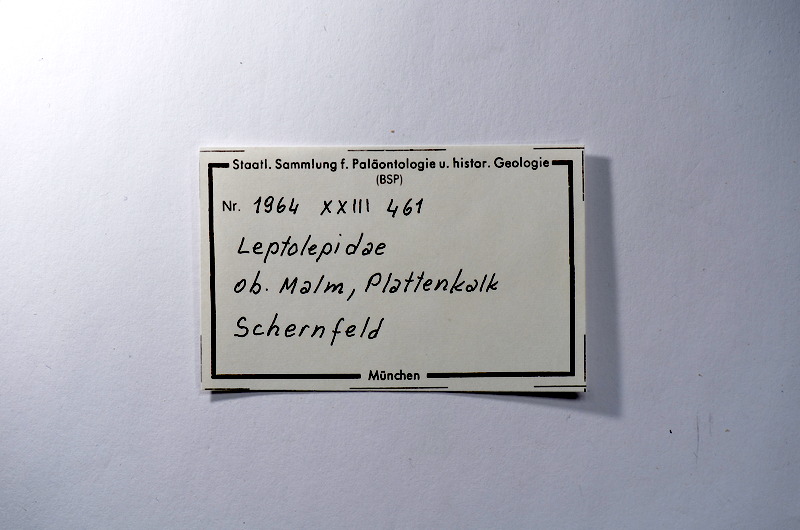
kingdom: Animalia
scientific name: Animalia
